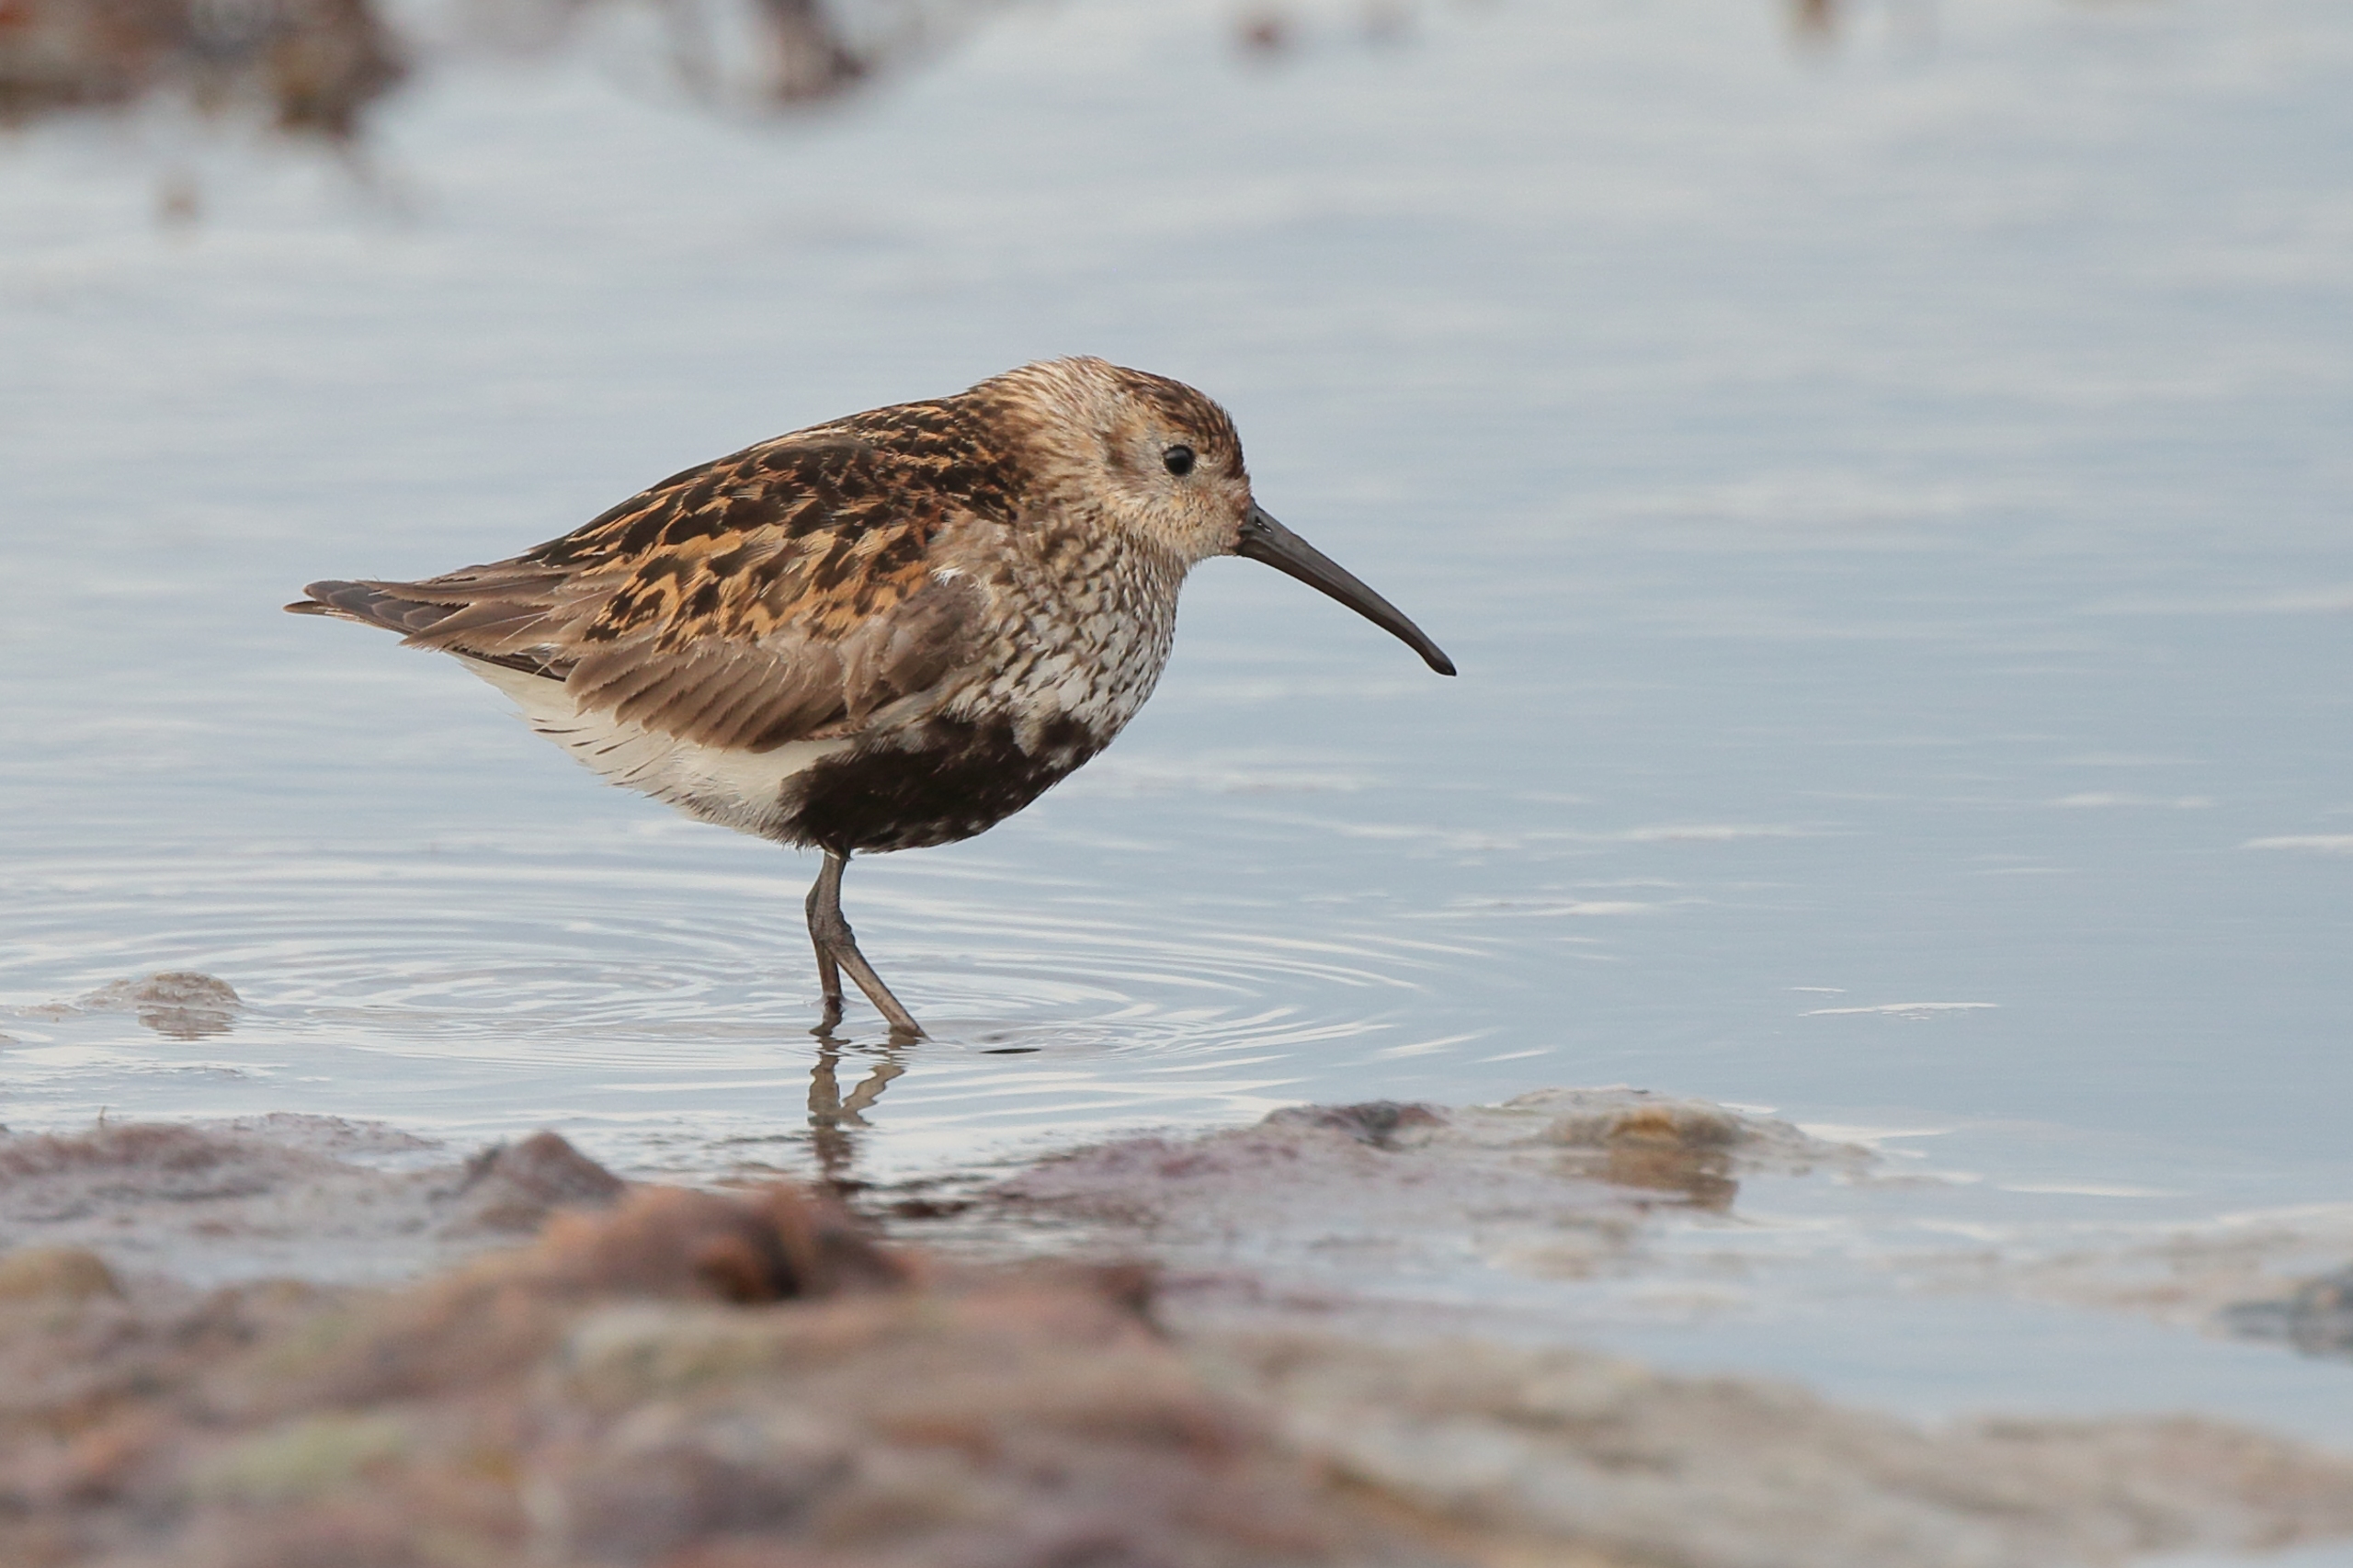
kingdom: Animalia
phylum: Chordata
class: Aves
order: Charadriiformes
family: Scolopacidae
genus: Calidris
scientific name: Calidris alpina
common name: Almindelig ryle
